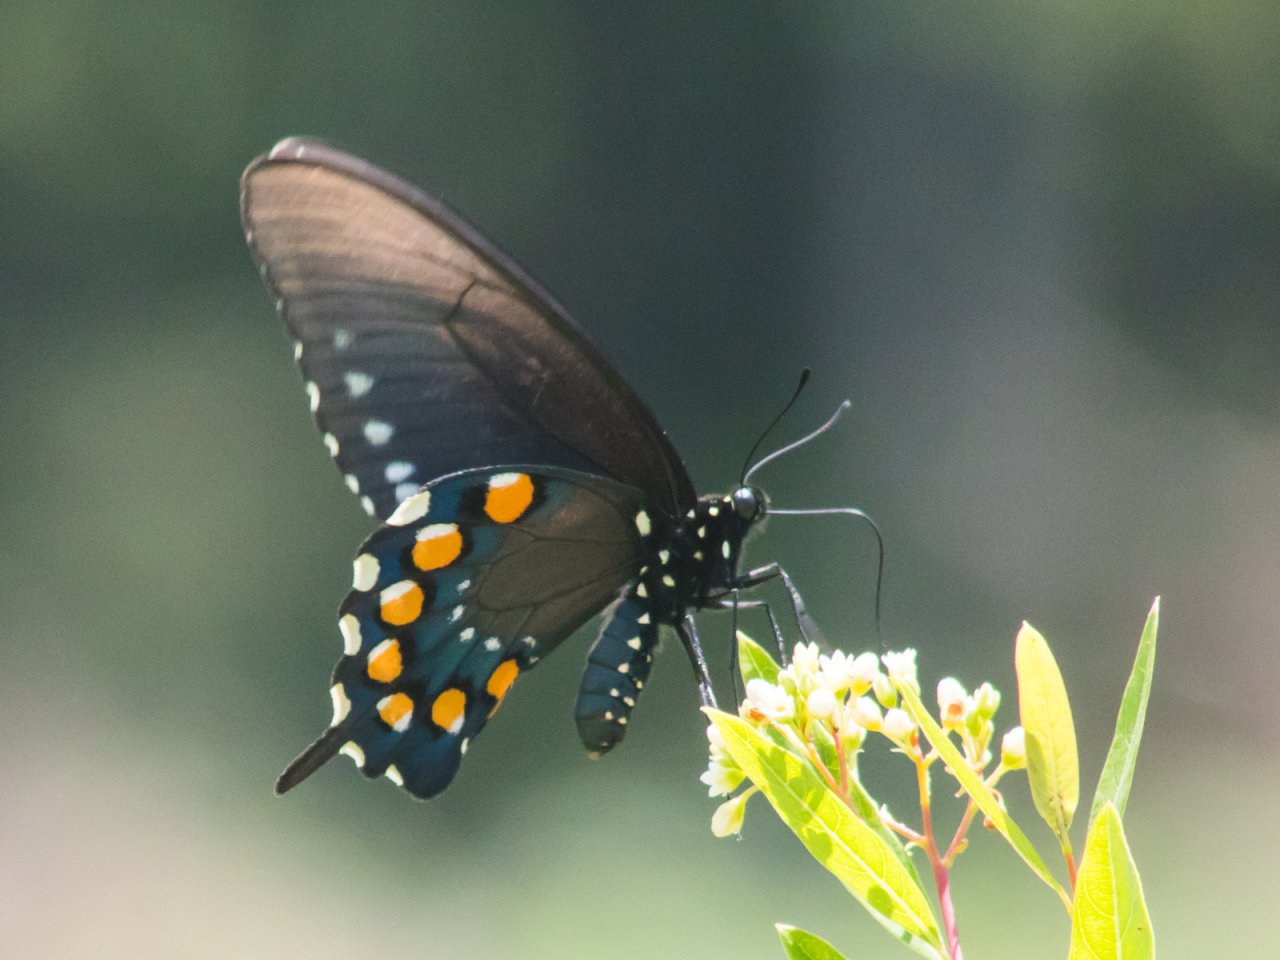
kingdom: Animalia
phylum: Arthropoda
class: Insecta
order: Lepidoptera
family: Papilionidae
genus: Battus
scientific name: Battus philenor
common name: Pipevine Swallowtail
